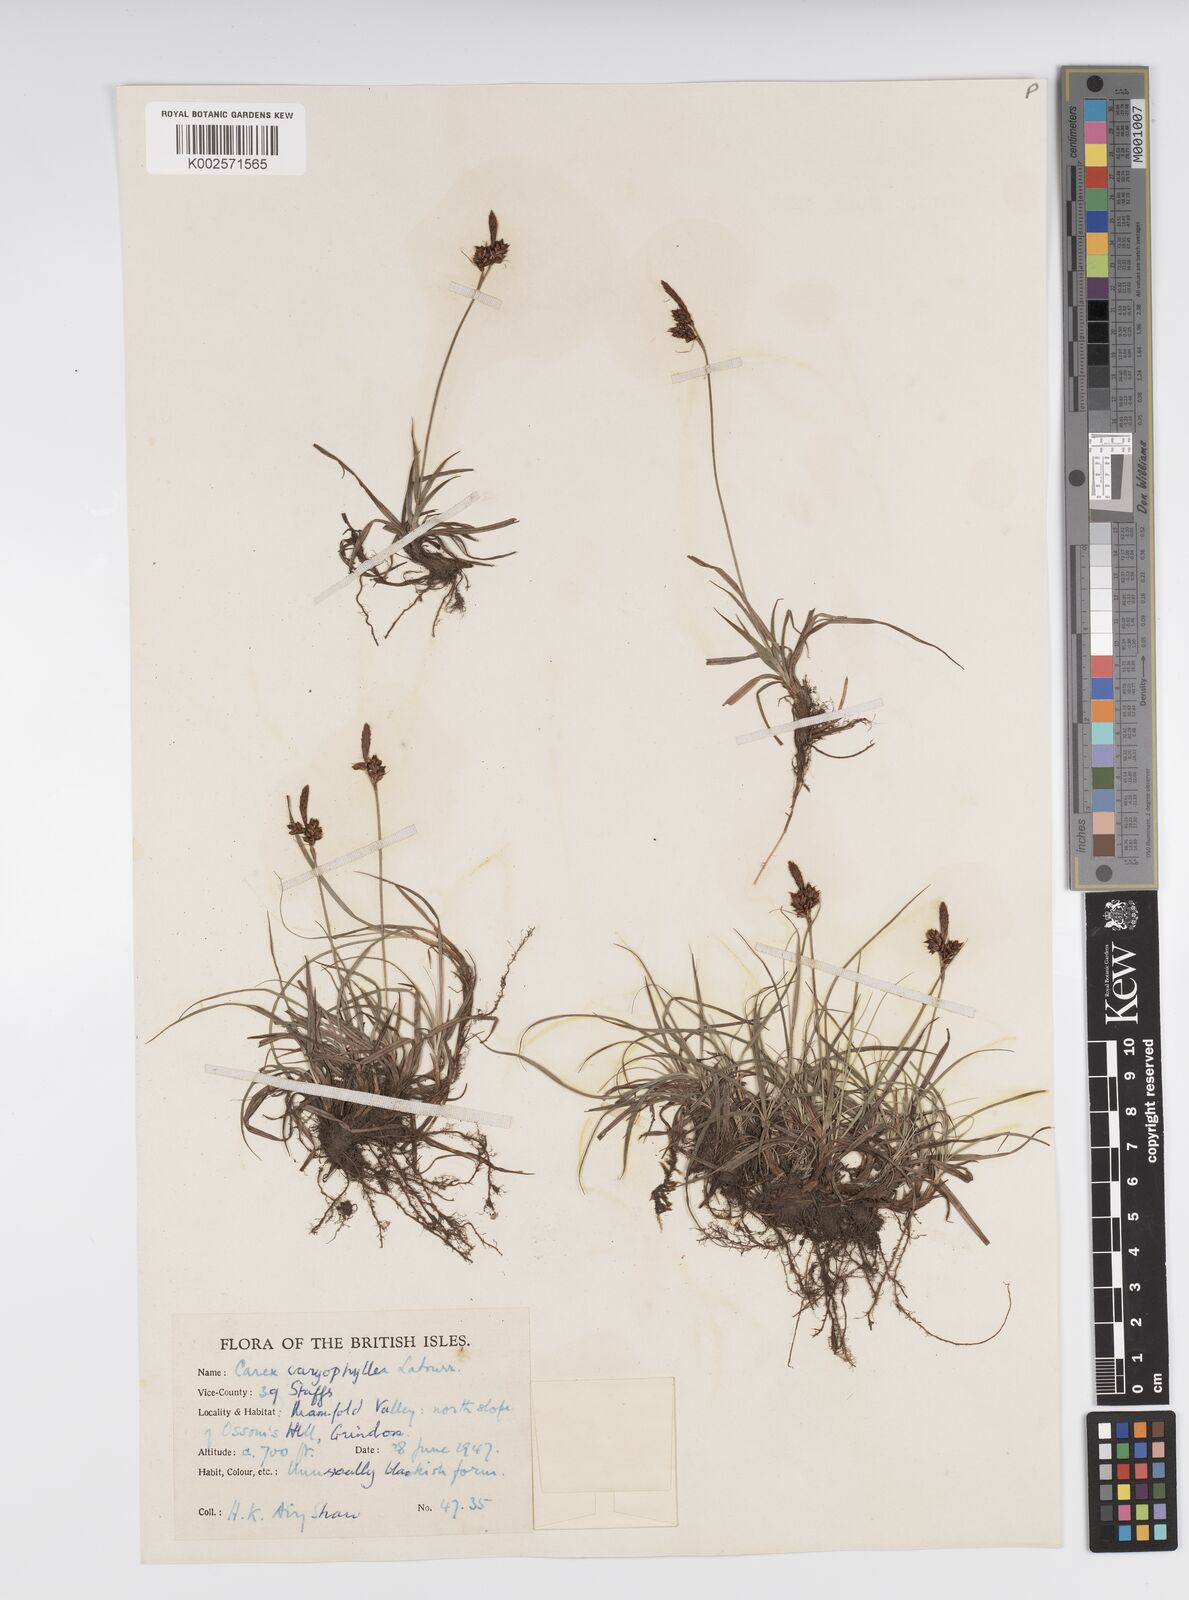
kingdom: Plantae
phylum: Tracheophyta
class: Liliopsida
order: Poales
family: Cyperaceae
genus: Carex
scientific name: Carex caryophyllea
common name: Spring sedge
